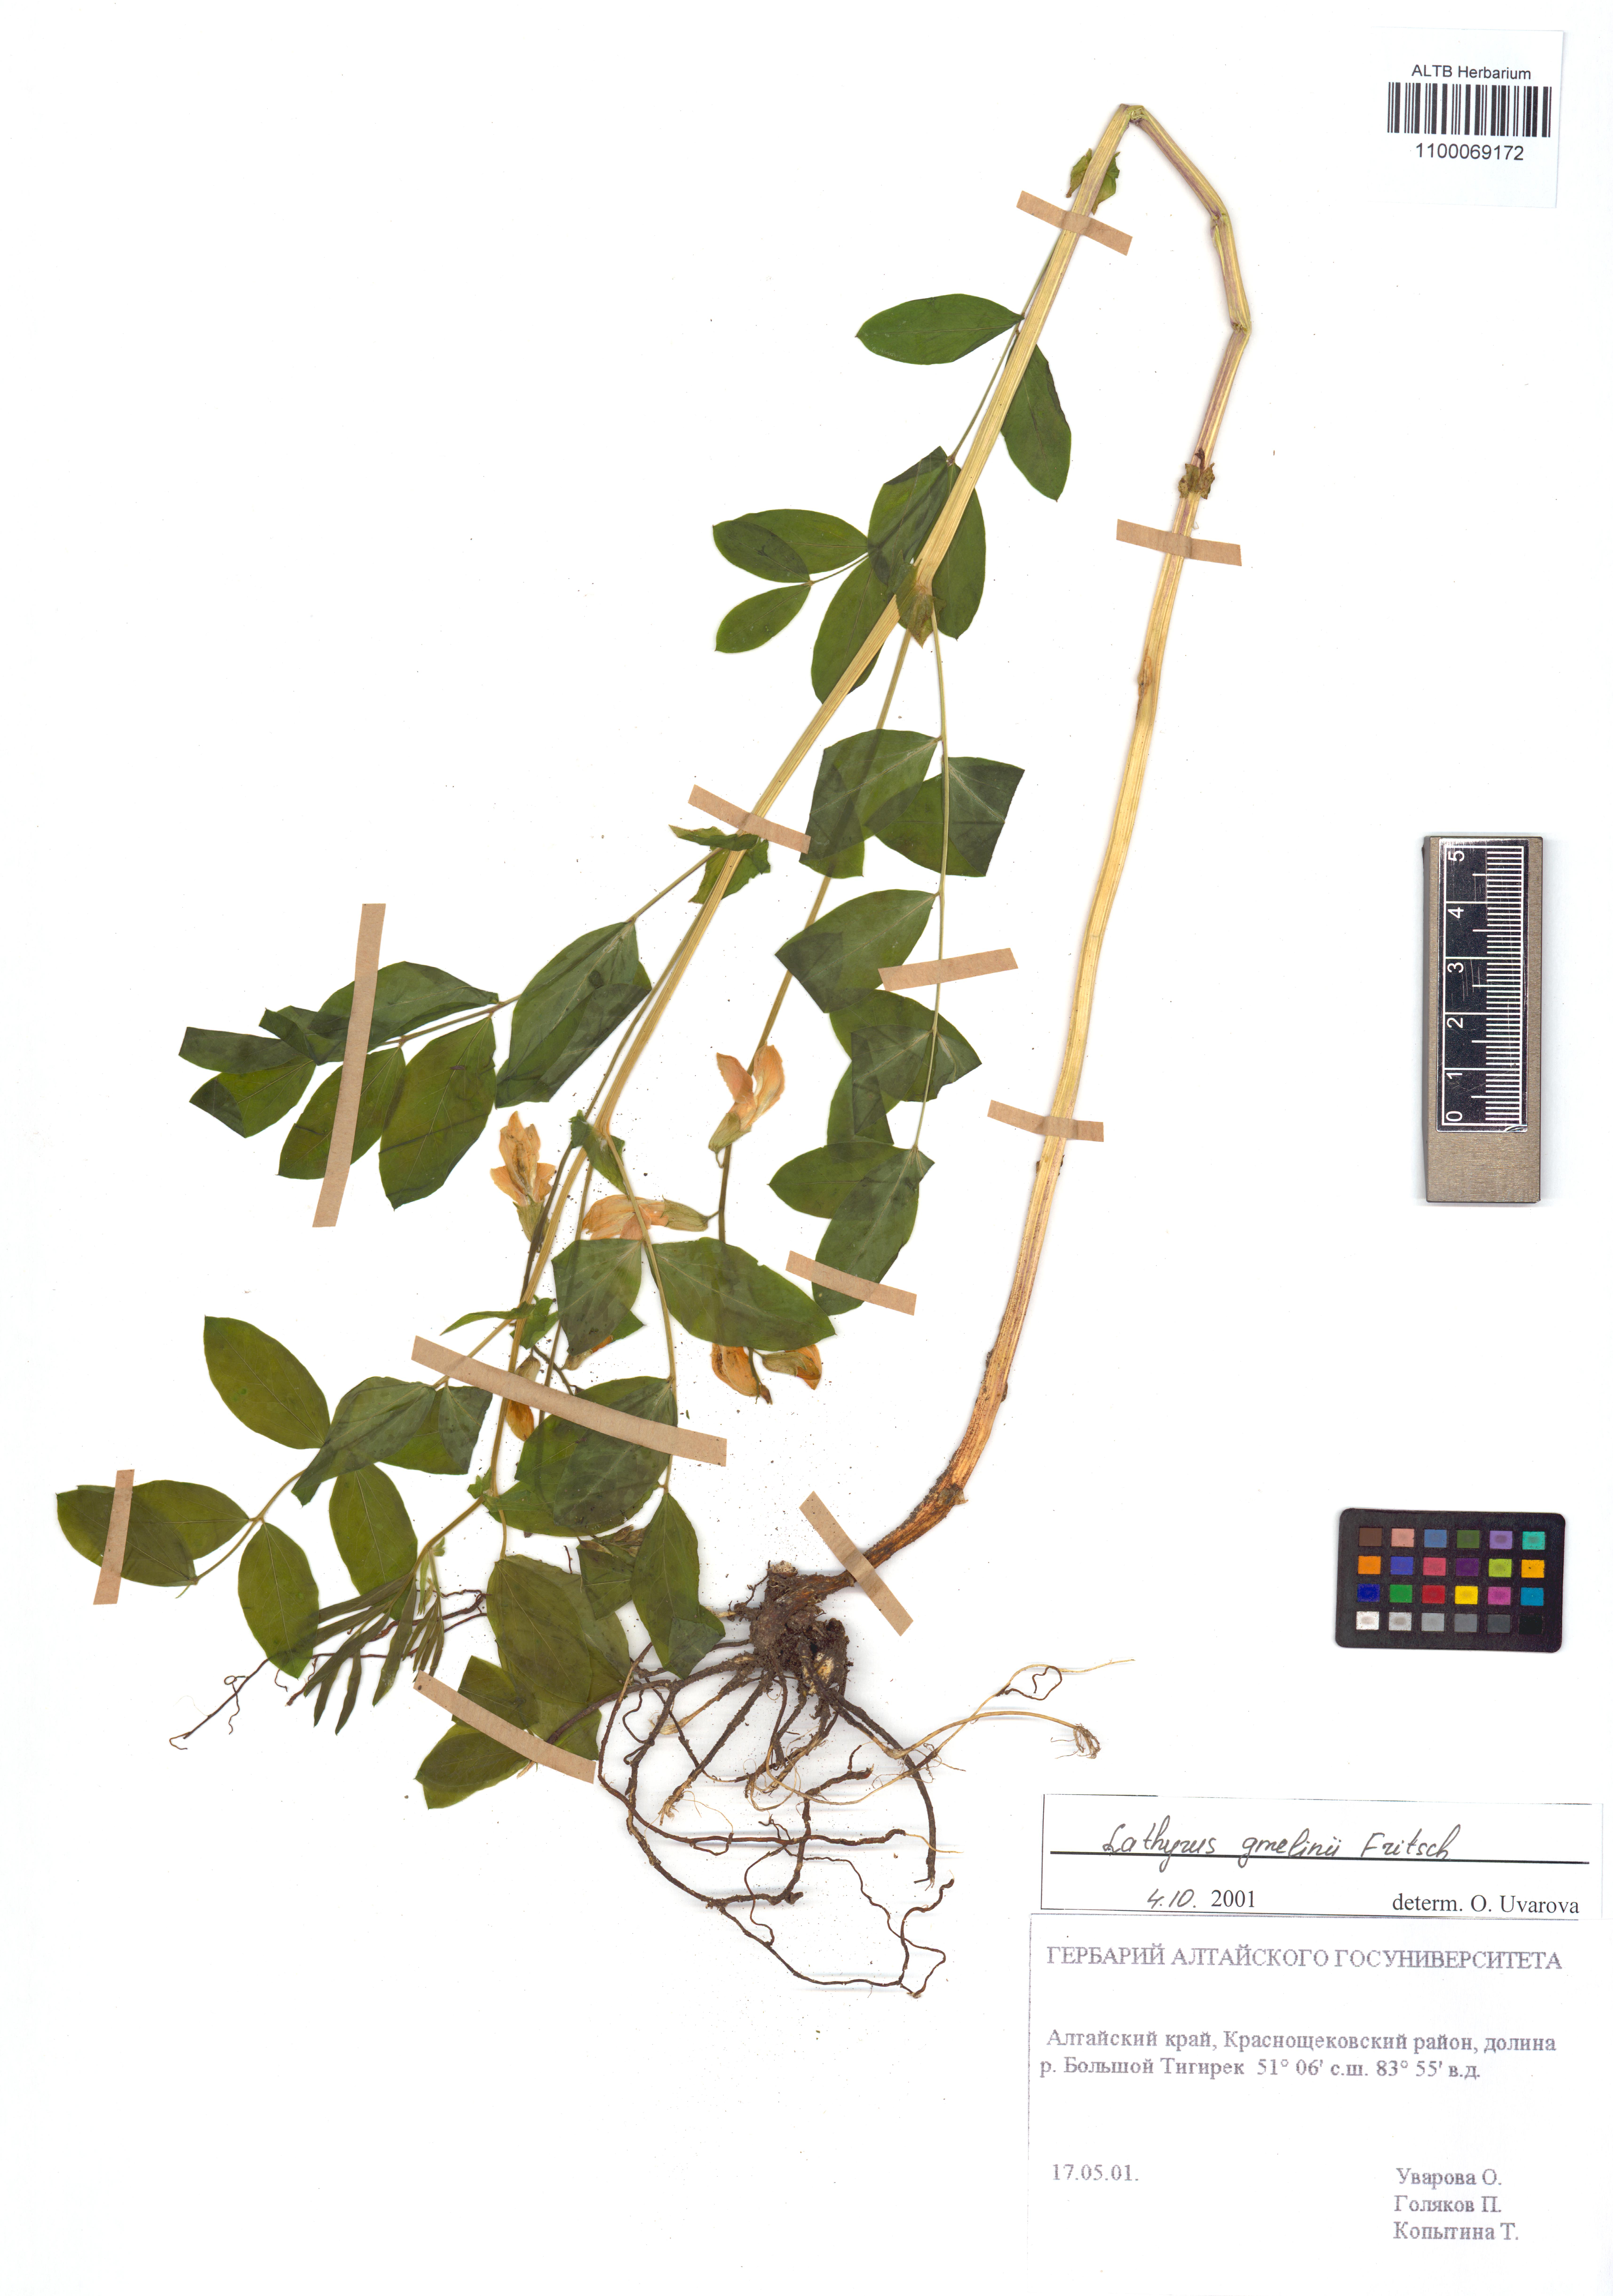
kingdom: Plantae
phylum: Tracheophyta
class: Magnoliopsida
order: Fabales
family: Fabaceae
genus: Lathyrus
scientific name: Lathyrus gmelinii
